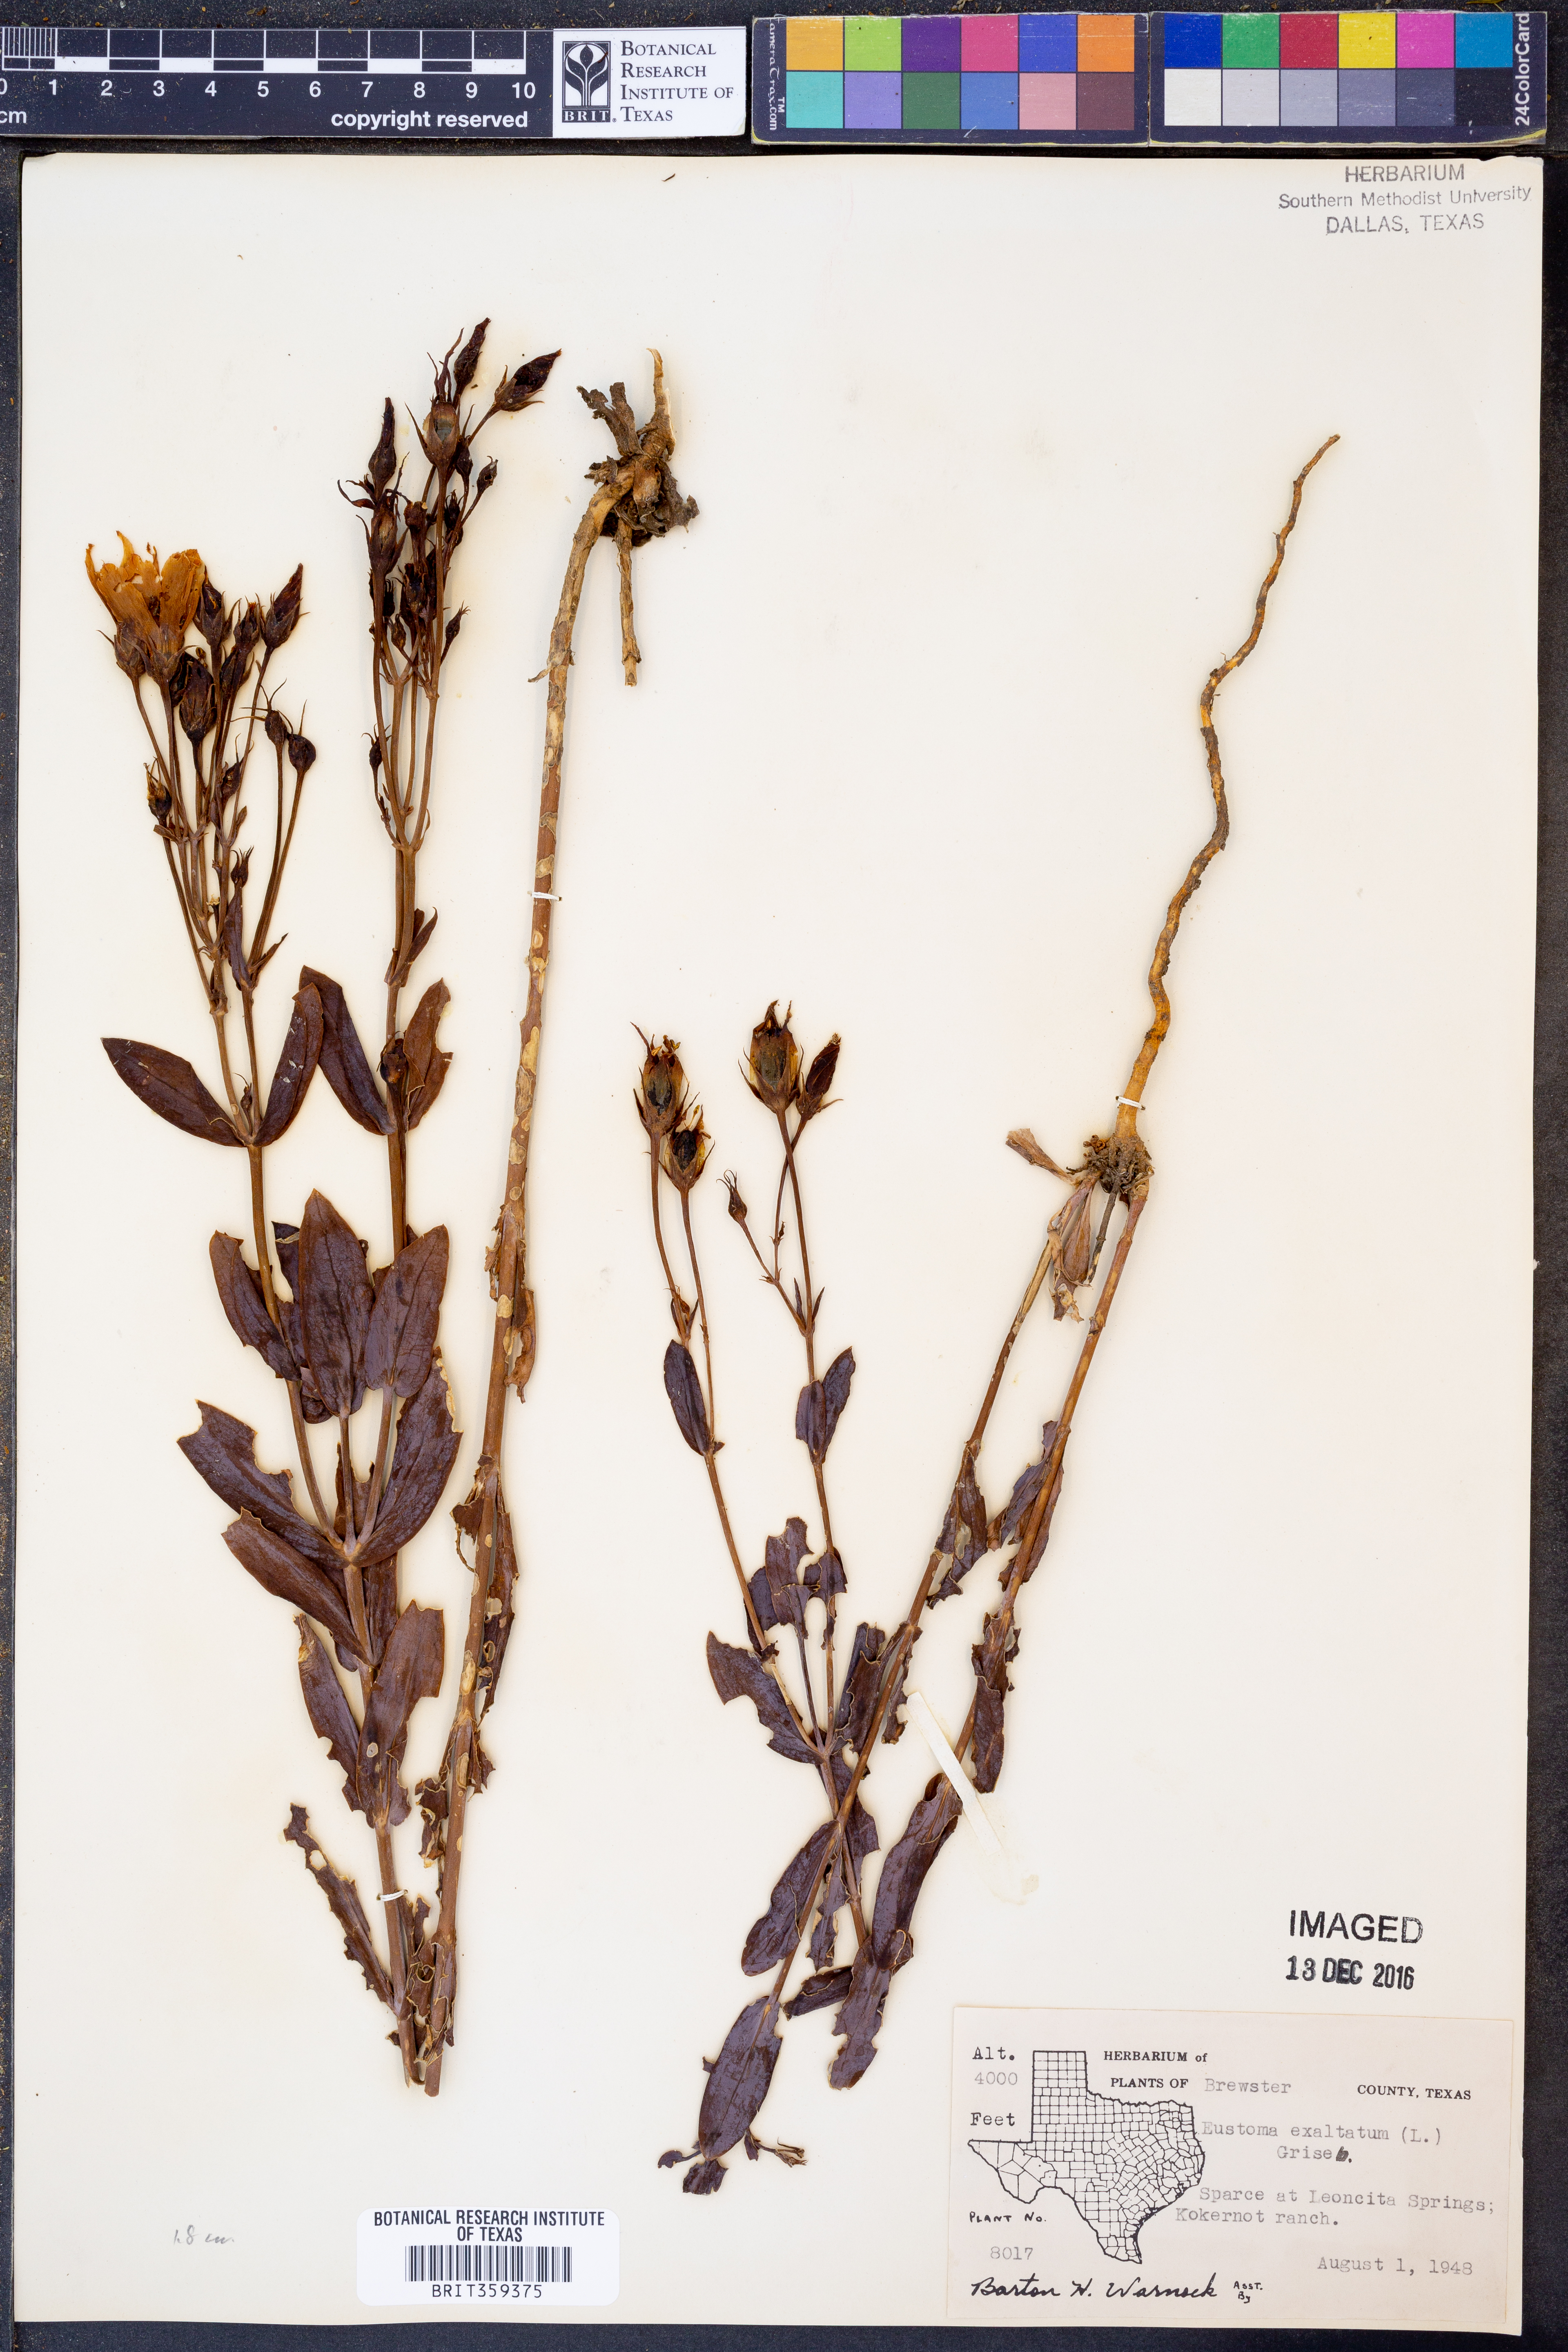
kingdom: Plantae
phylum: Tracheophyta
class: Magnoliopsida
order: Gentianales
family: Gentianaceae
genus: Eustoma
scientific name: Eustoma exaltatum
